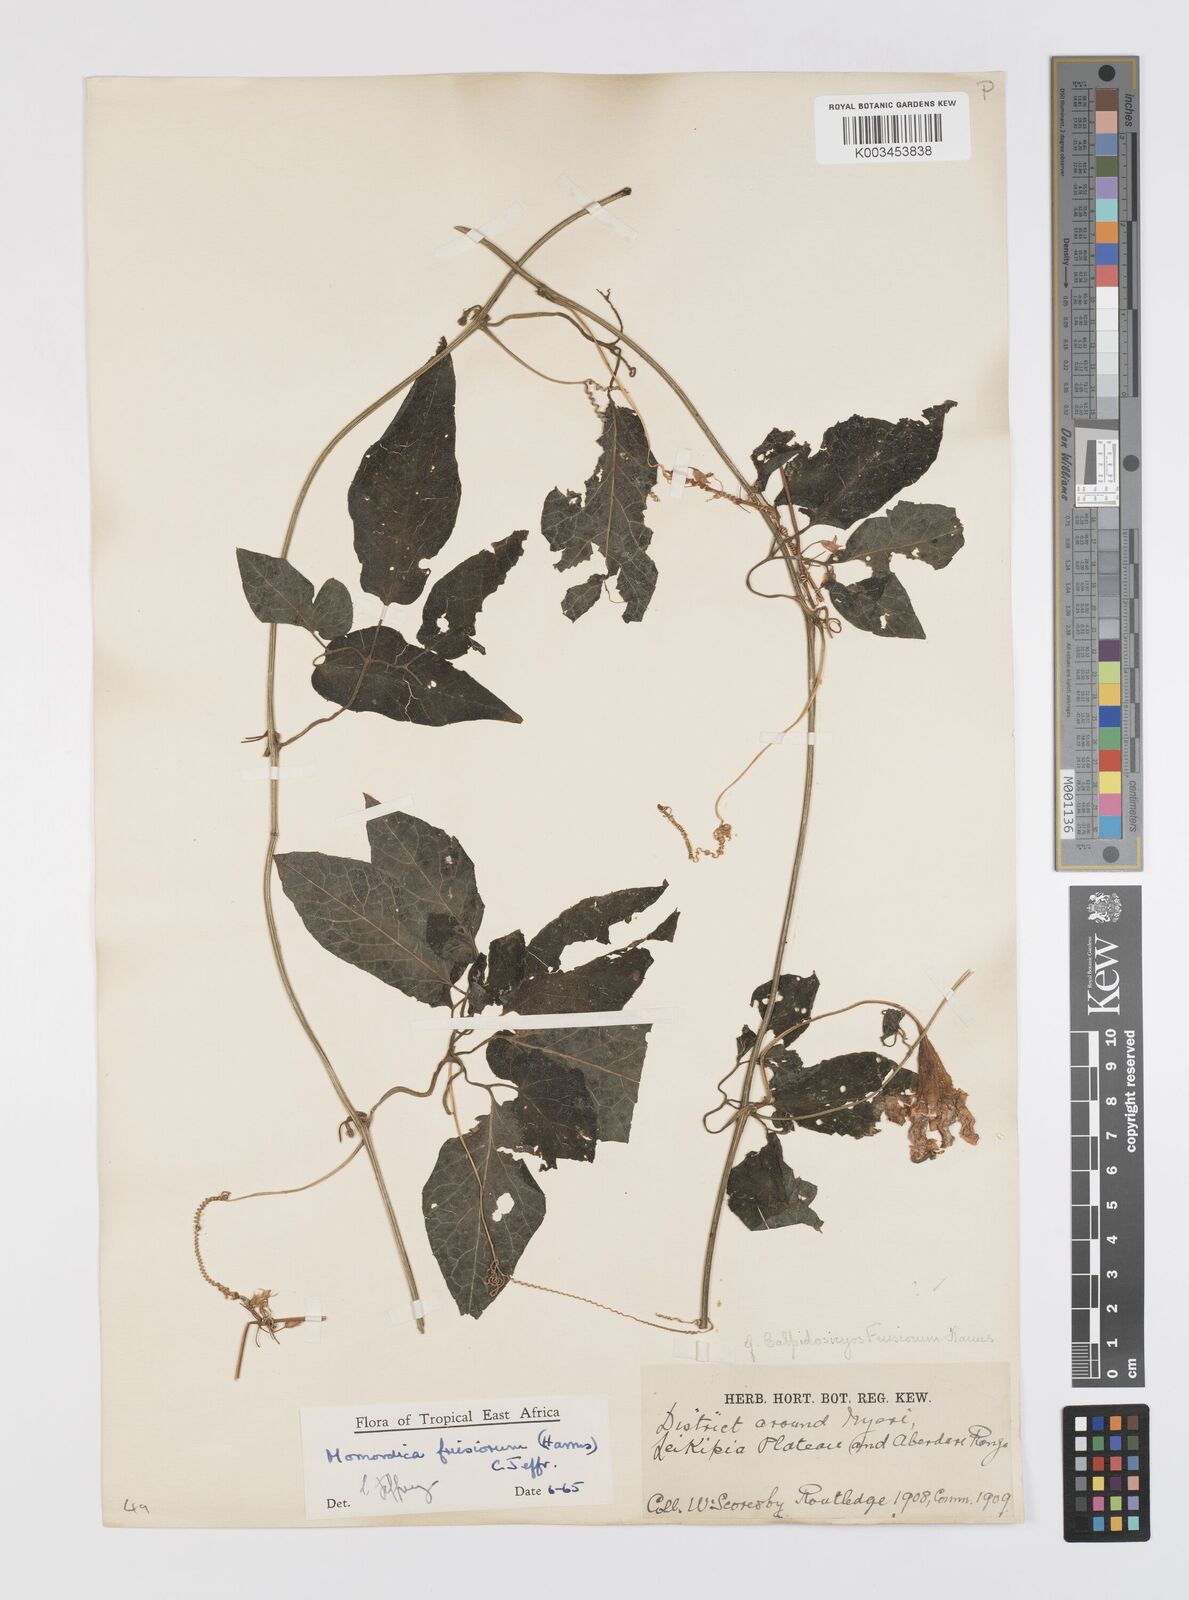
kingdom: Plantae
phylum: Tracheophyta
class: Magnoliopsida
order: Cucurbitales
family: Cucurbitaceae
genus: Momordica
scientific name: Momordica friesiorum
